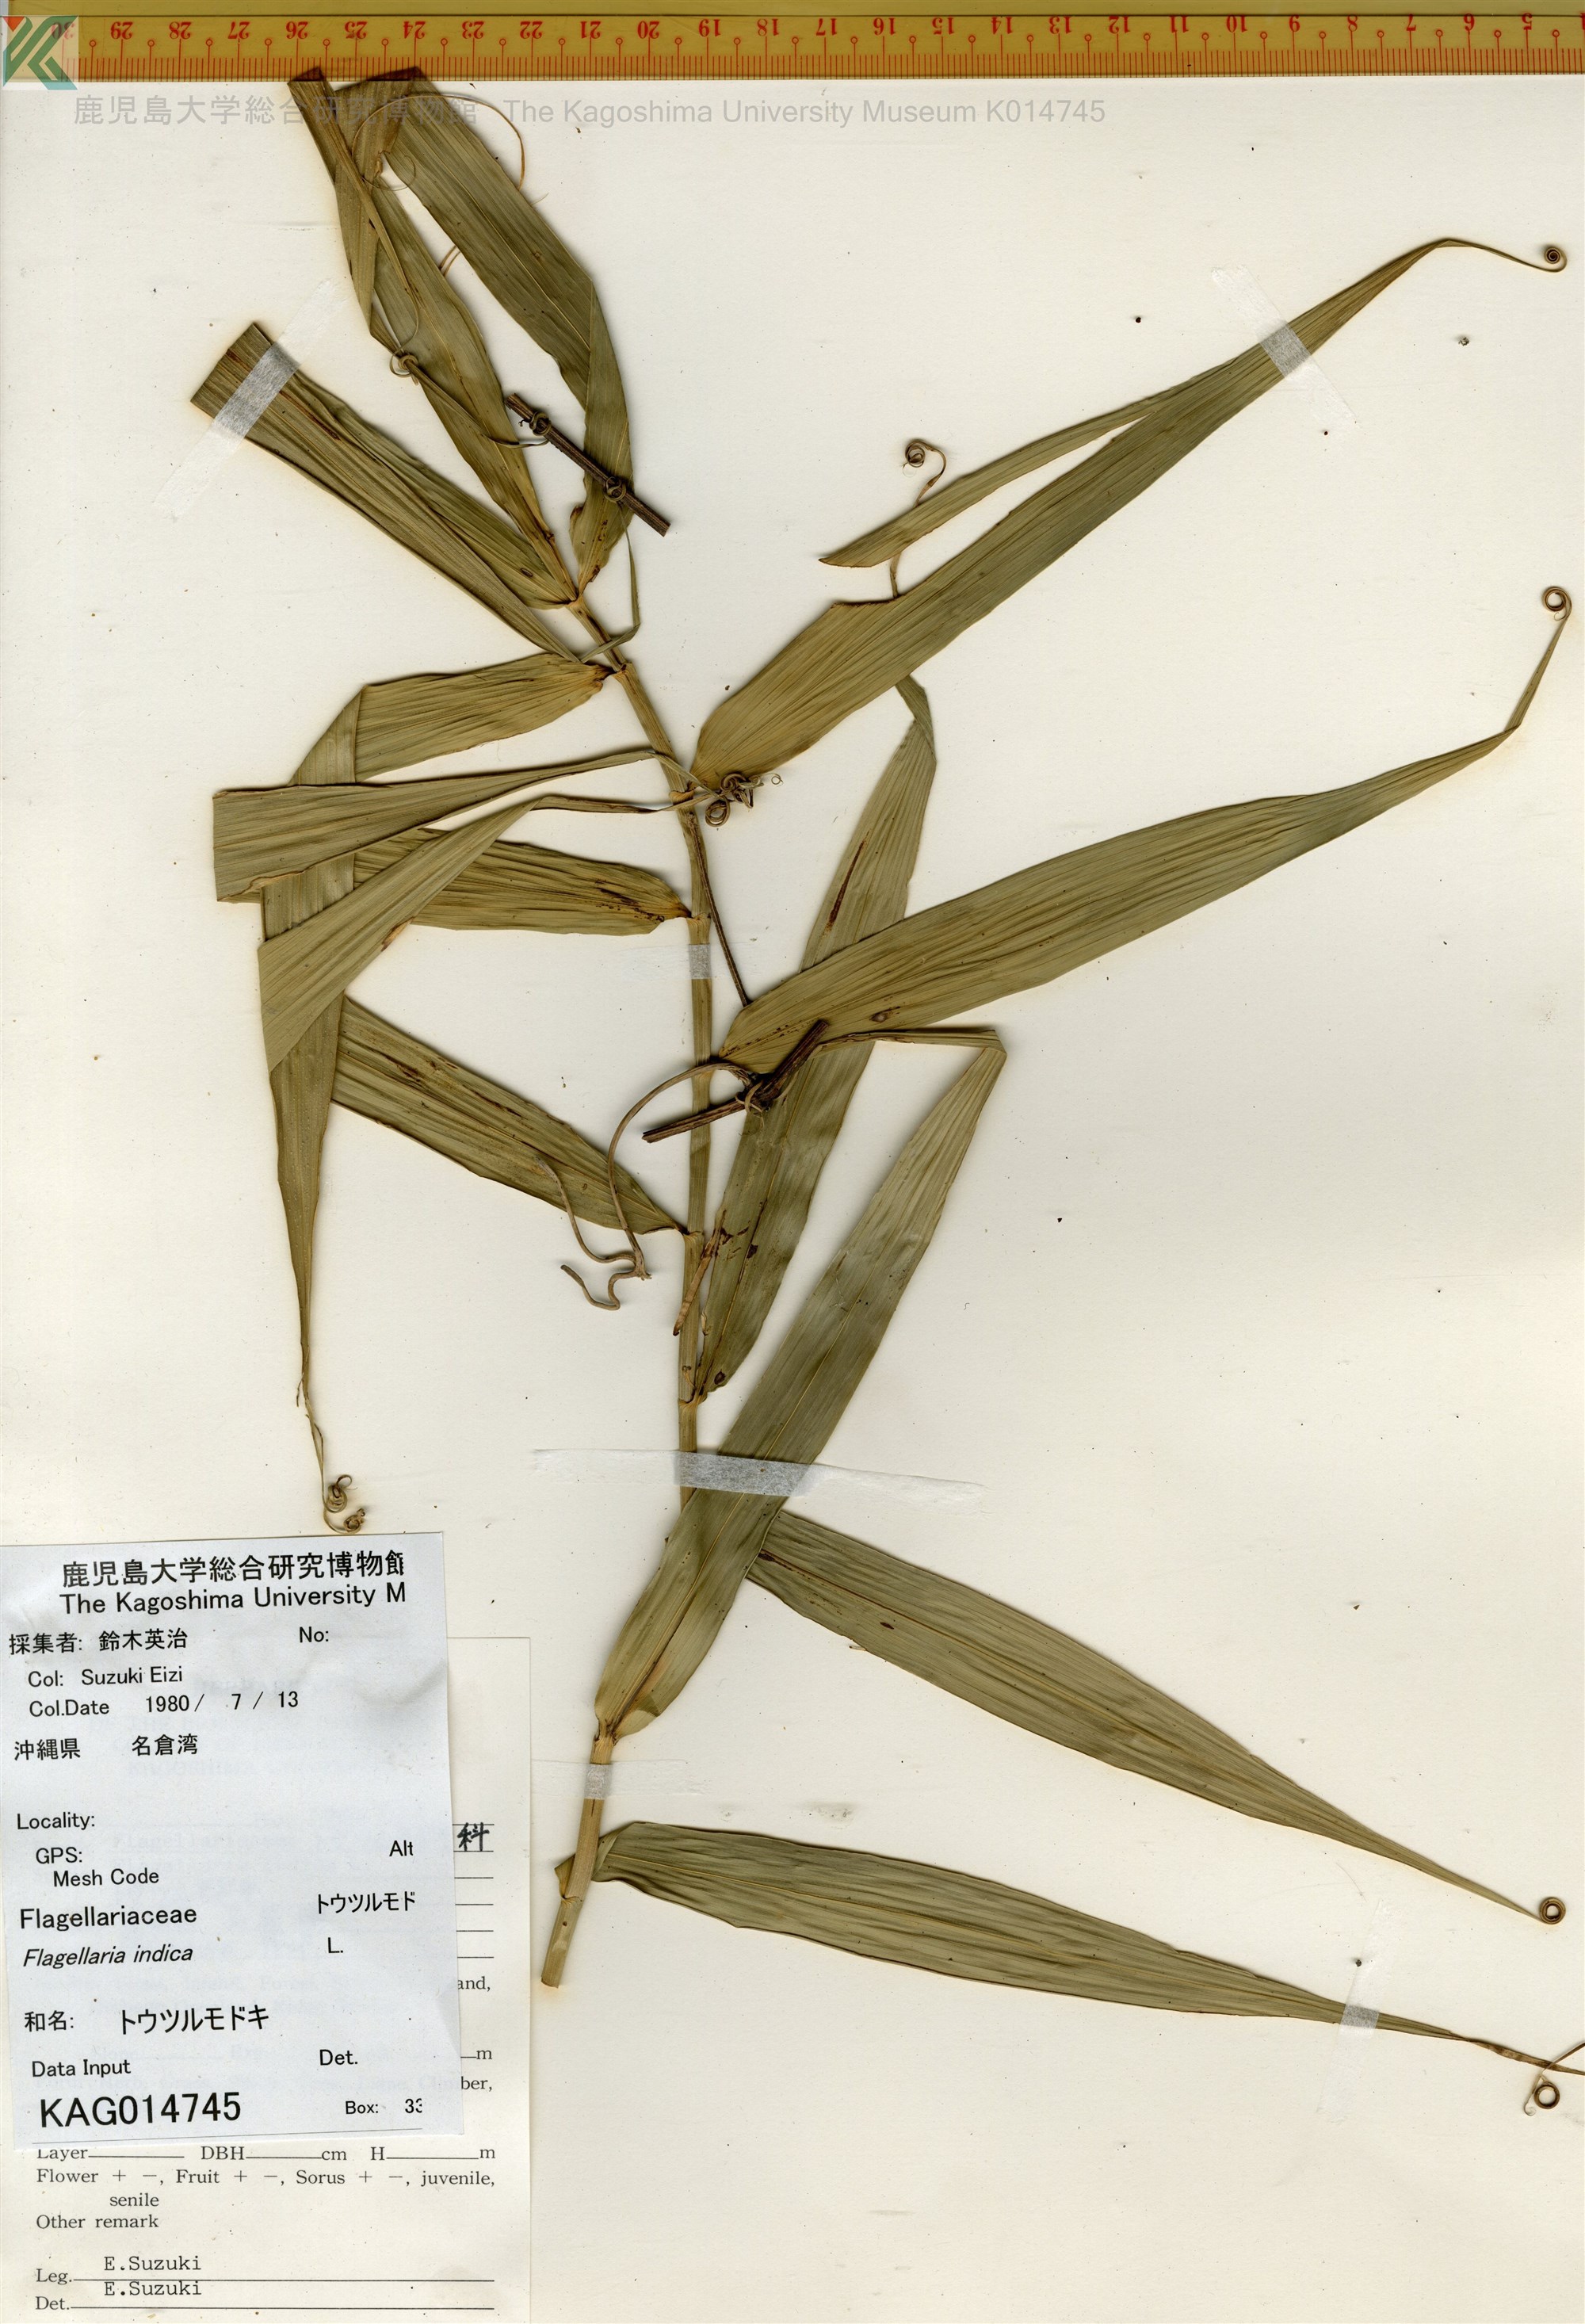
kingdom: Plantae
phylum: Tracheophyta
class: Liliopsida
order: Poales
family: Flagellariaceae
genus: Flagellaria
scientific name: Flagellaria indica
